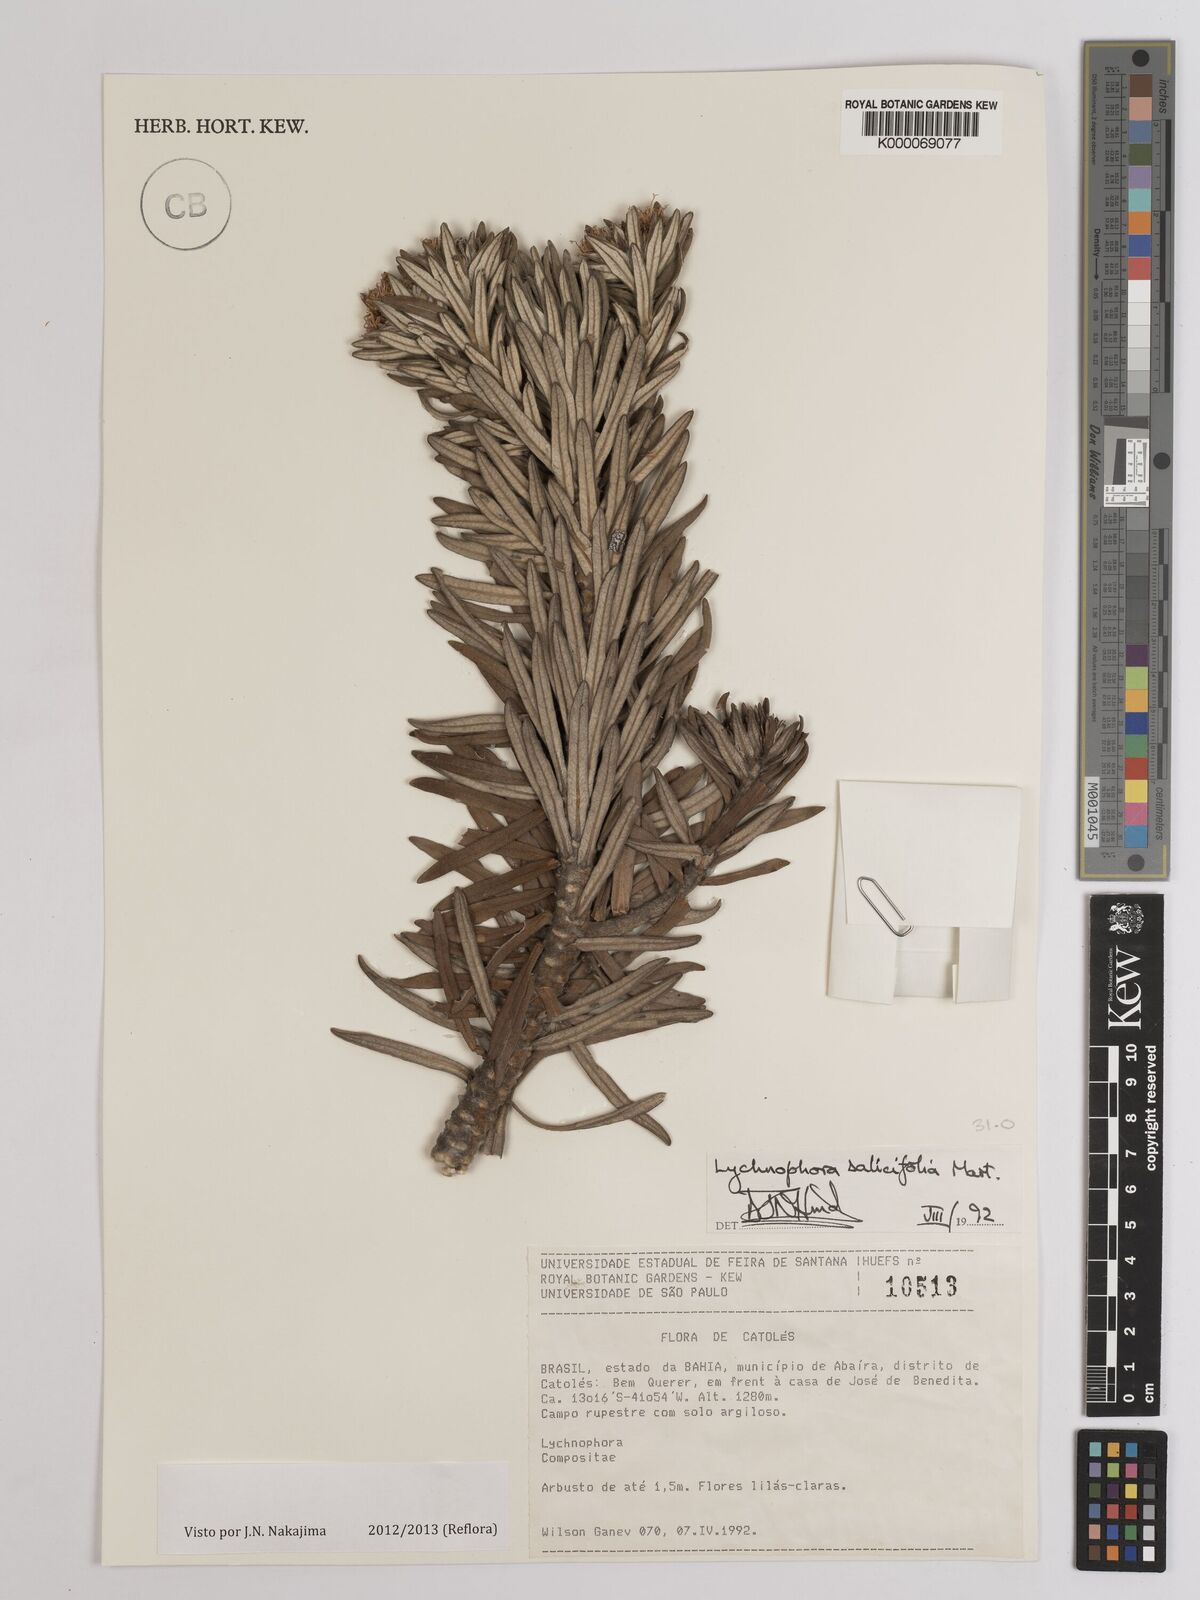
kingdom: Plantae
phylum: Tracheophyta
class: Magnoliopsida
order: Asterales
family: Asteraceae
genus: Lychnophora
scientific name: Lychnophora salicifolia
